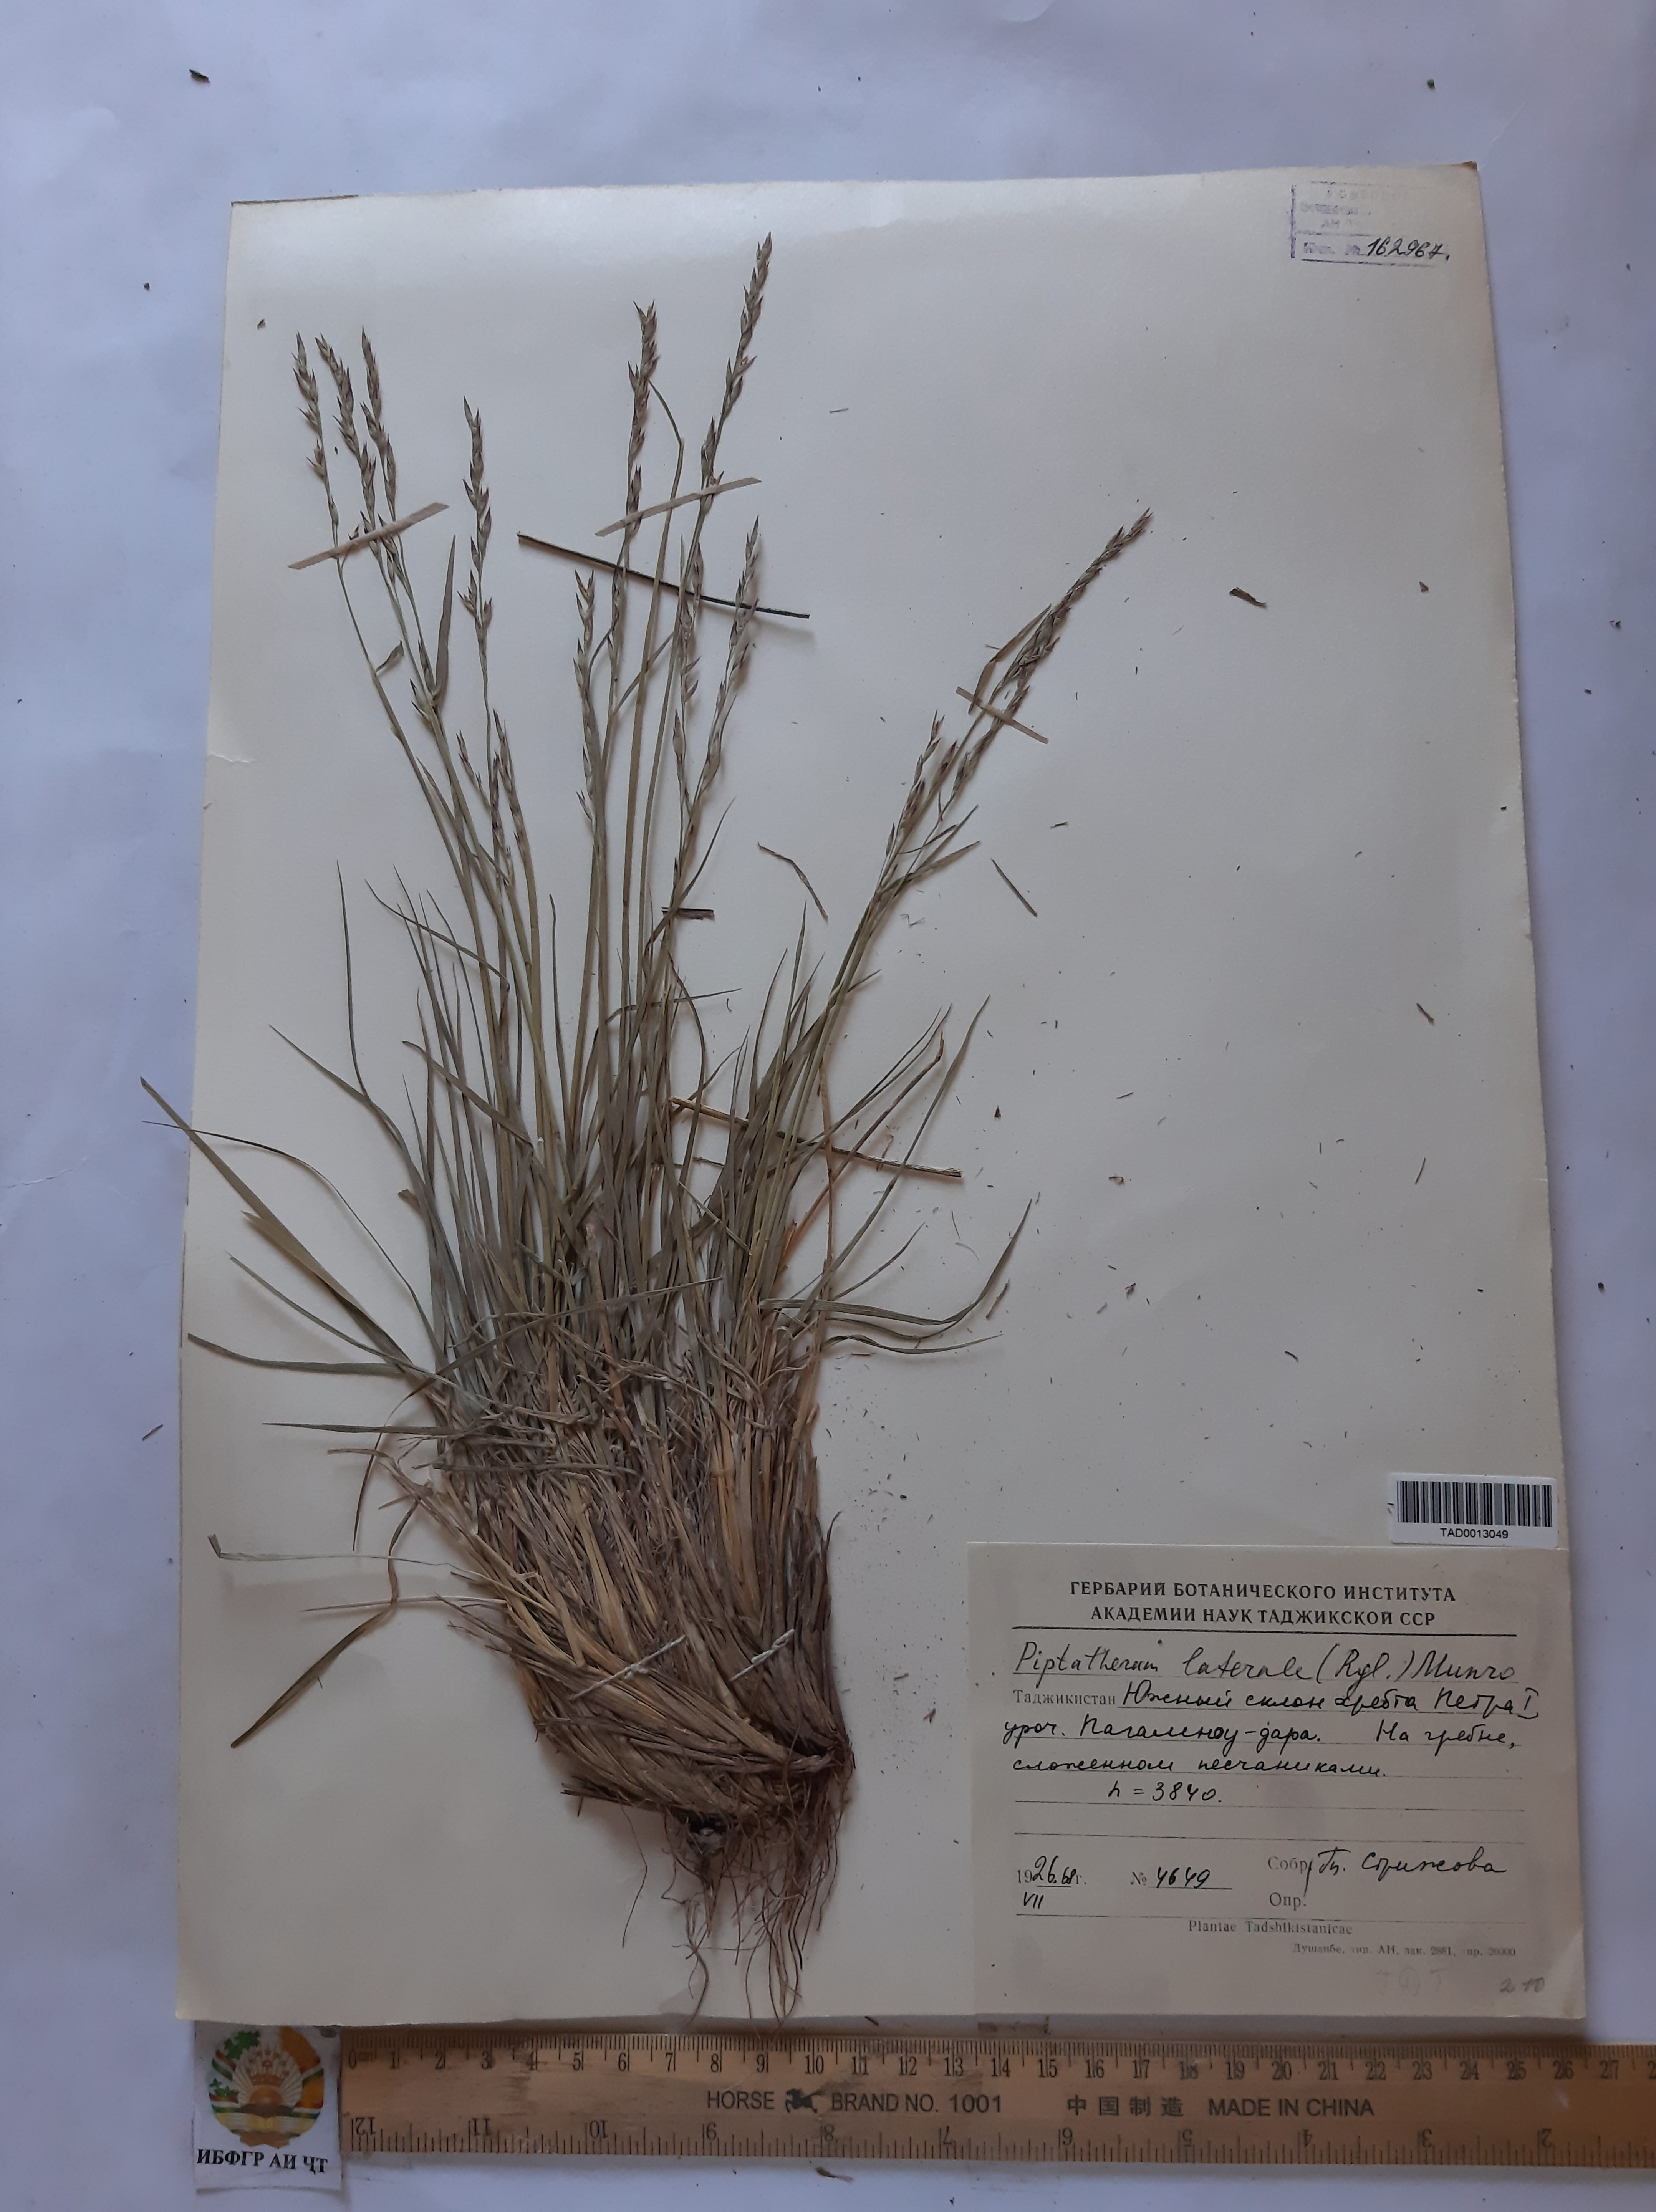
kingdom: Plantae
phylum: Tracheophyta
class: Liliopsida
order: Poales
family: Poaceae
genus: Piptatherum
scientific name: Piptatherum laterale
